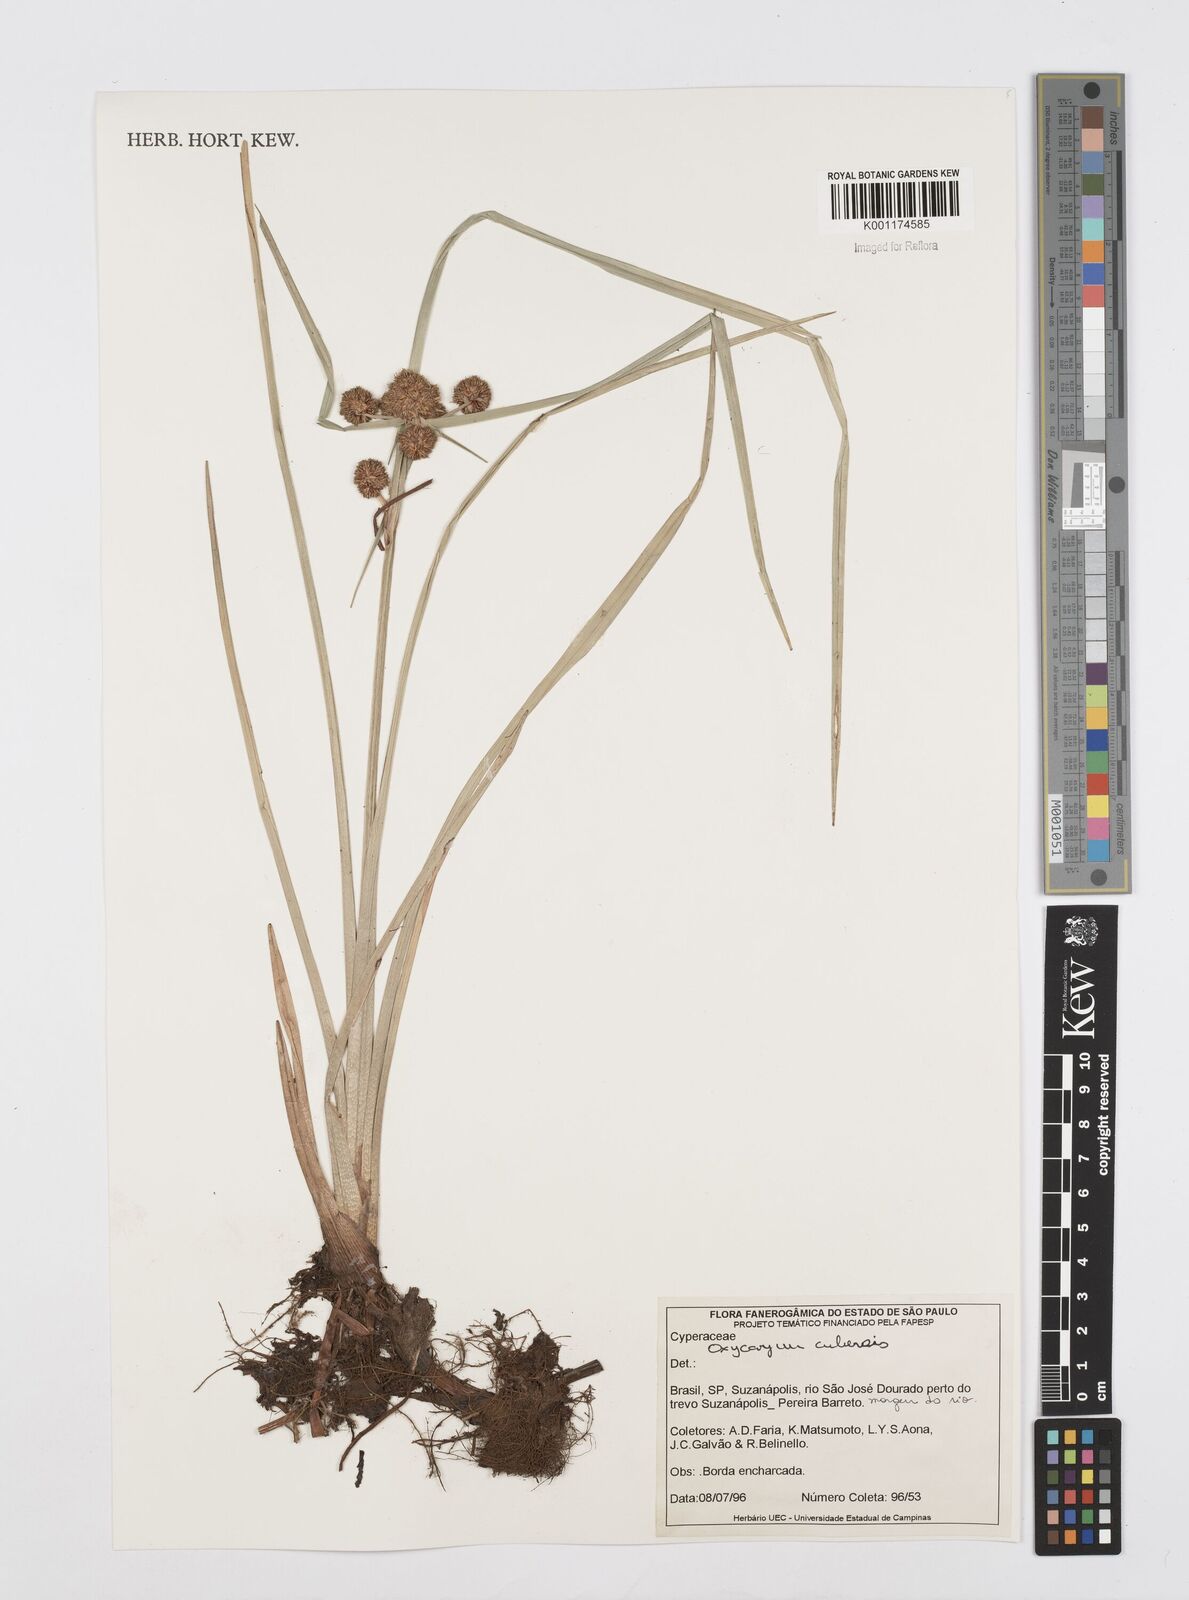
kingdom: Plantae
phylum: Tracheophyta
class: Liliopsida
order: Poales
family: Cyperaceae
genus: Cyperus
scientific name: Cyperus elegans
